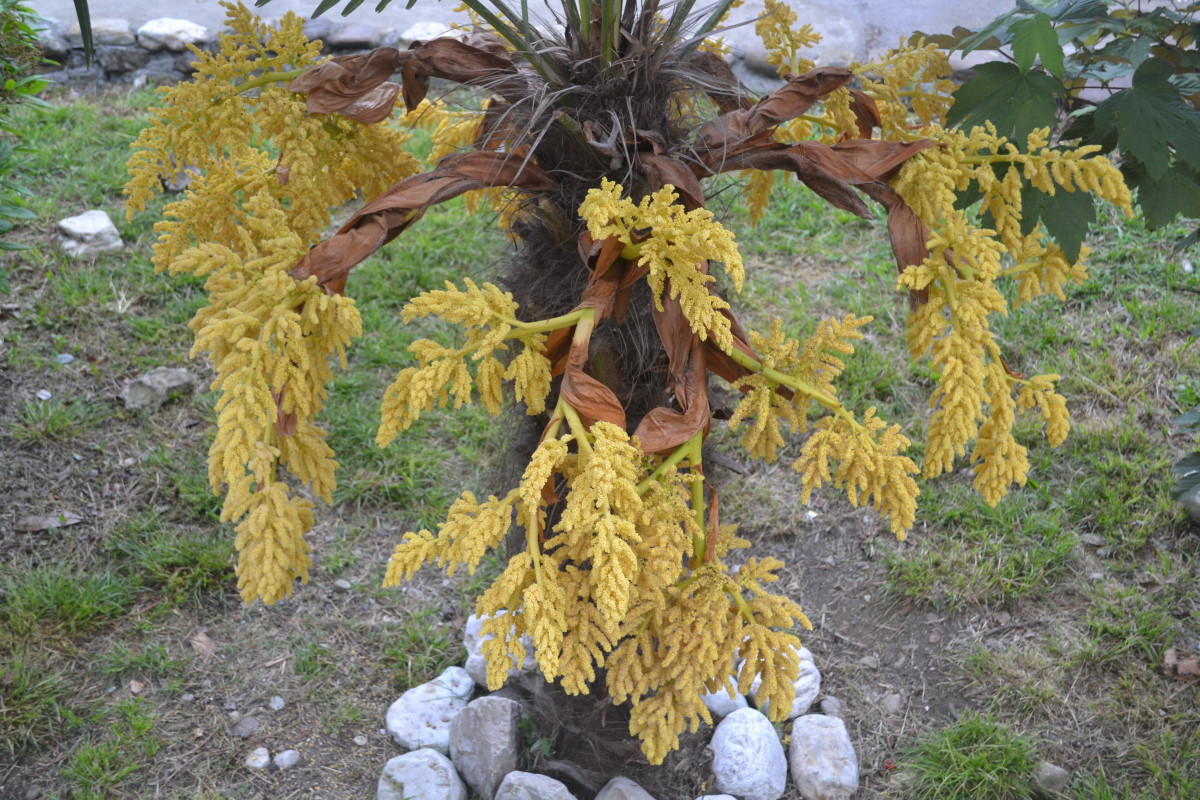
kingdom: Plantae
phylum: Tracheophyta
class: Liliopsida
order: Arecales
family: Arecaceae
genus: Washingtonia
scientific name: Washingtonia robusta
